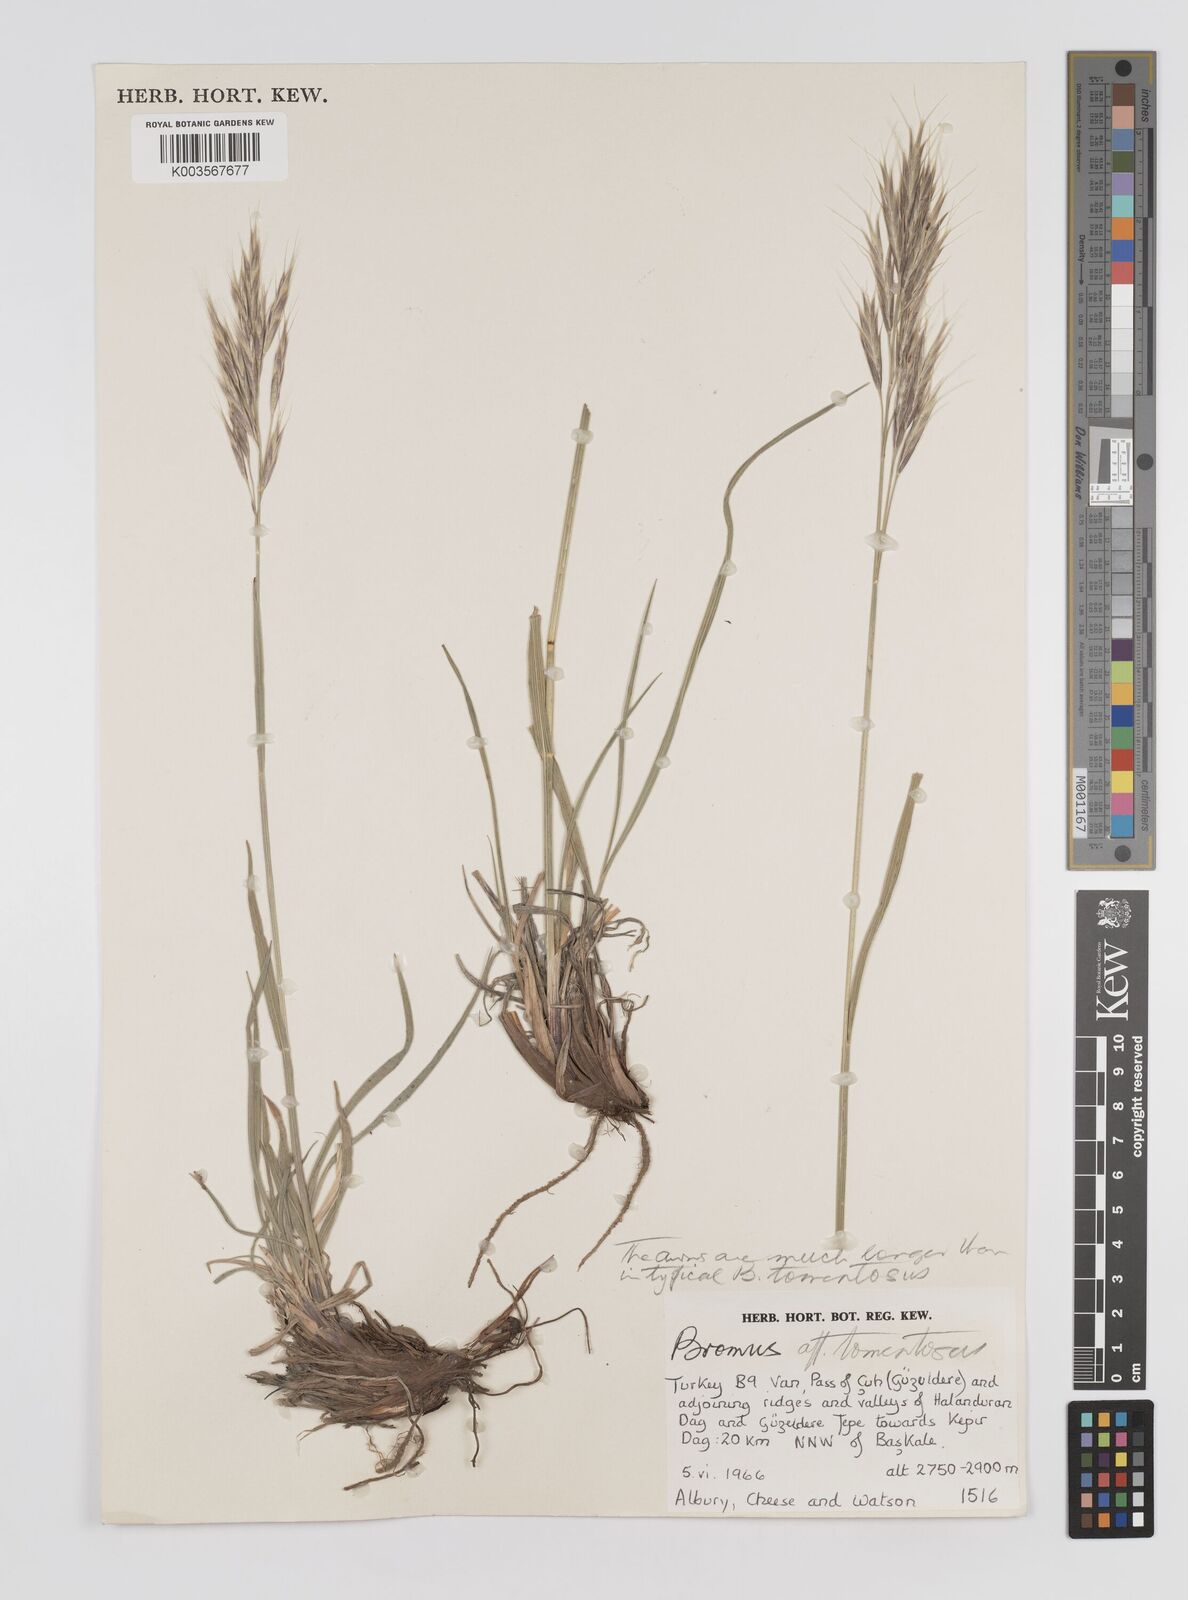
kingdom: Plantae
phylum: Tracheophyta
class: Liliopsida
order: Poales
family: Poaceae
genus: Bromus
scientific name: Bromus
